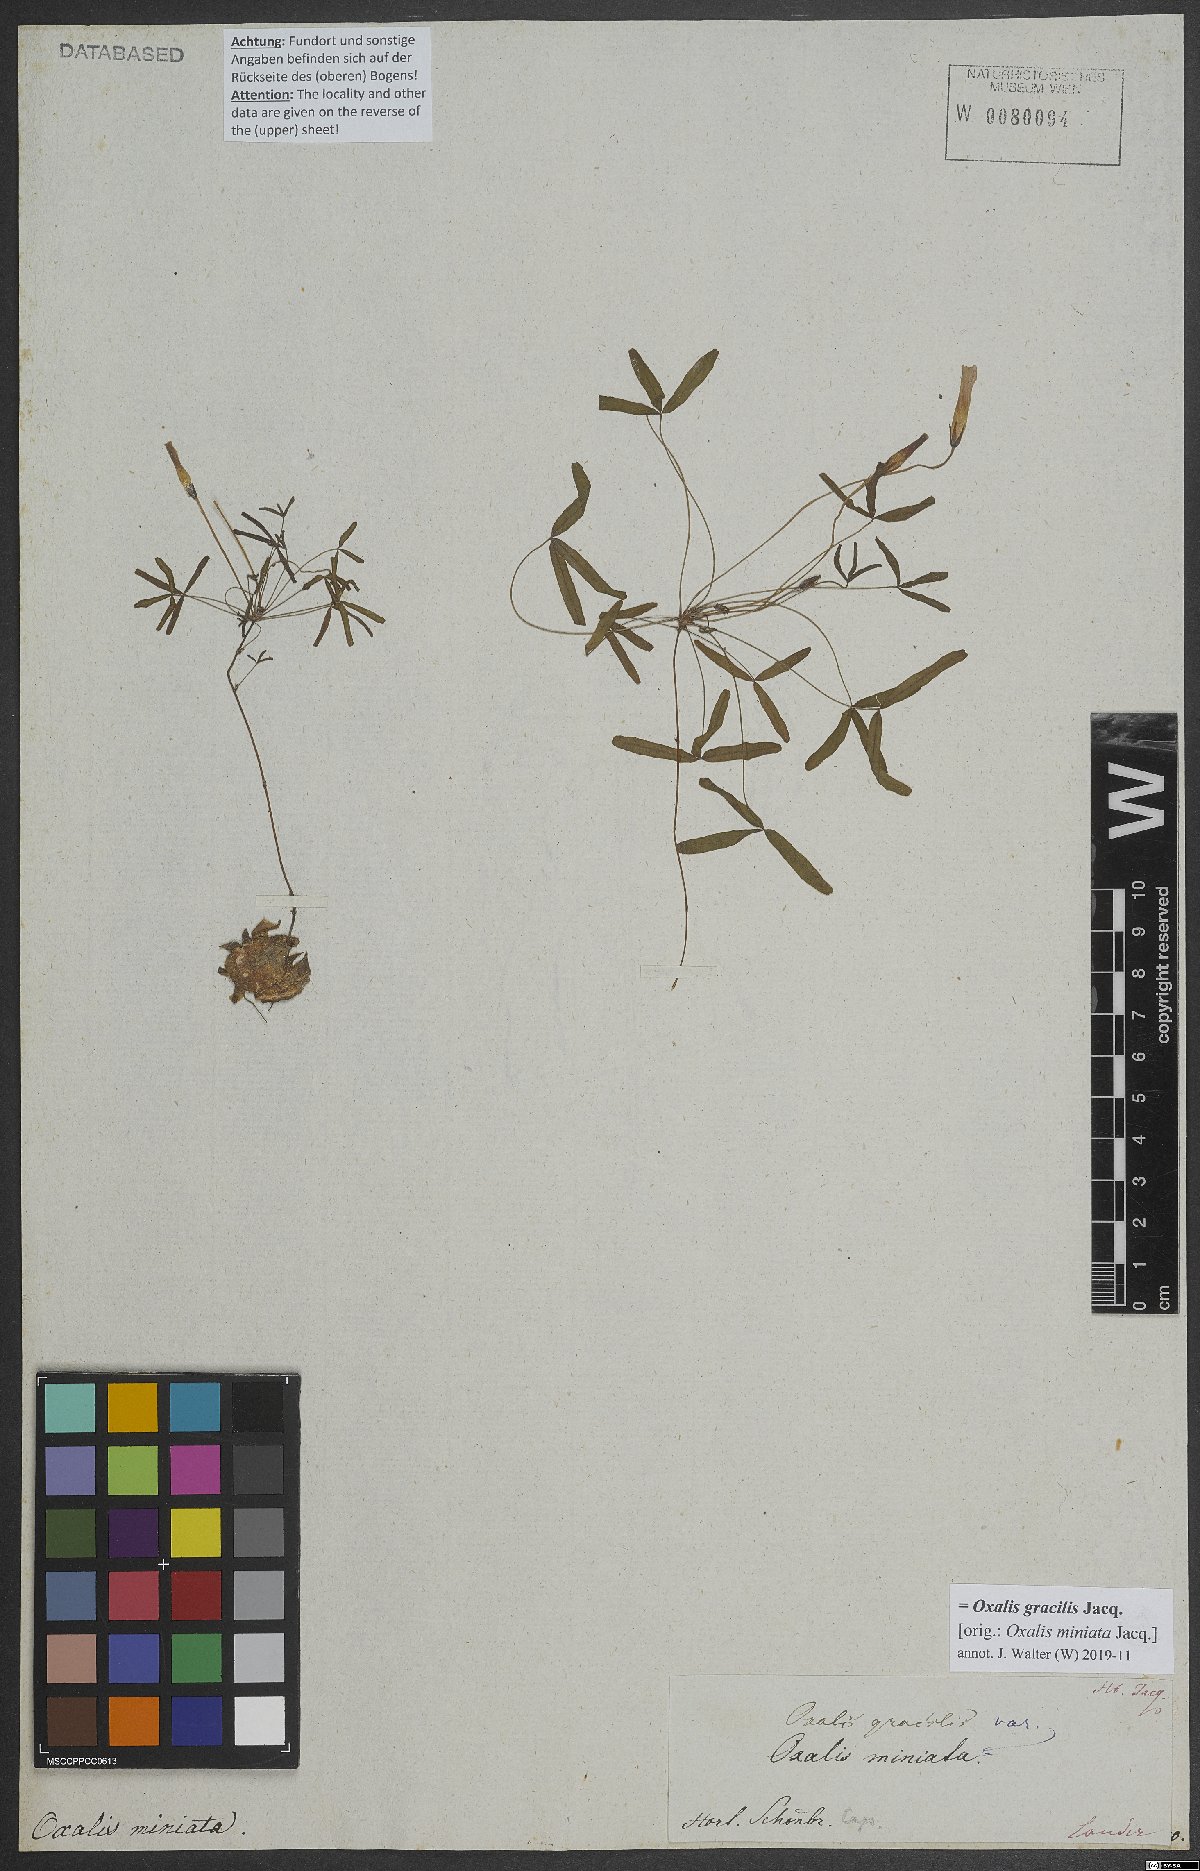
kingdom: Plantae
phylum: Tracheophyta
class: Magnoliopsida
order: Oxalidales
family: Oxalidaceae
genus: Oxalis
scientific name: Oxalis gracilis
